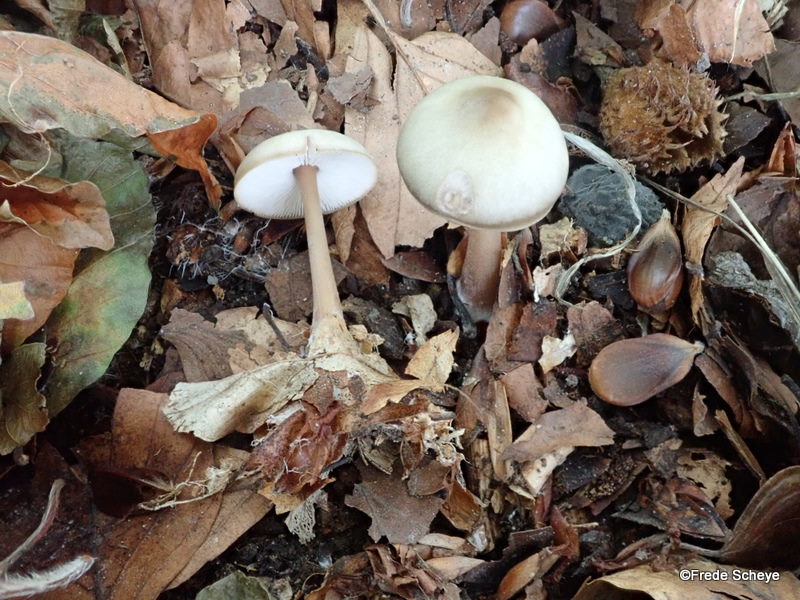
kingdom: Fungi
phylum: Basidiomycota
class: Agaricomycetes
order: Agaricales
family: Omphalotaceae
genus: Rhodocollybia
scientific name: Rhodocollybia asema
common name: horngrå fladhat
